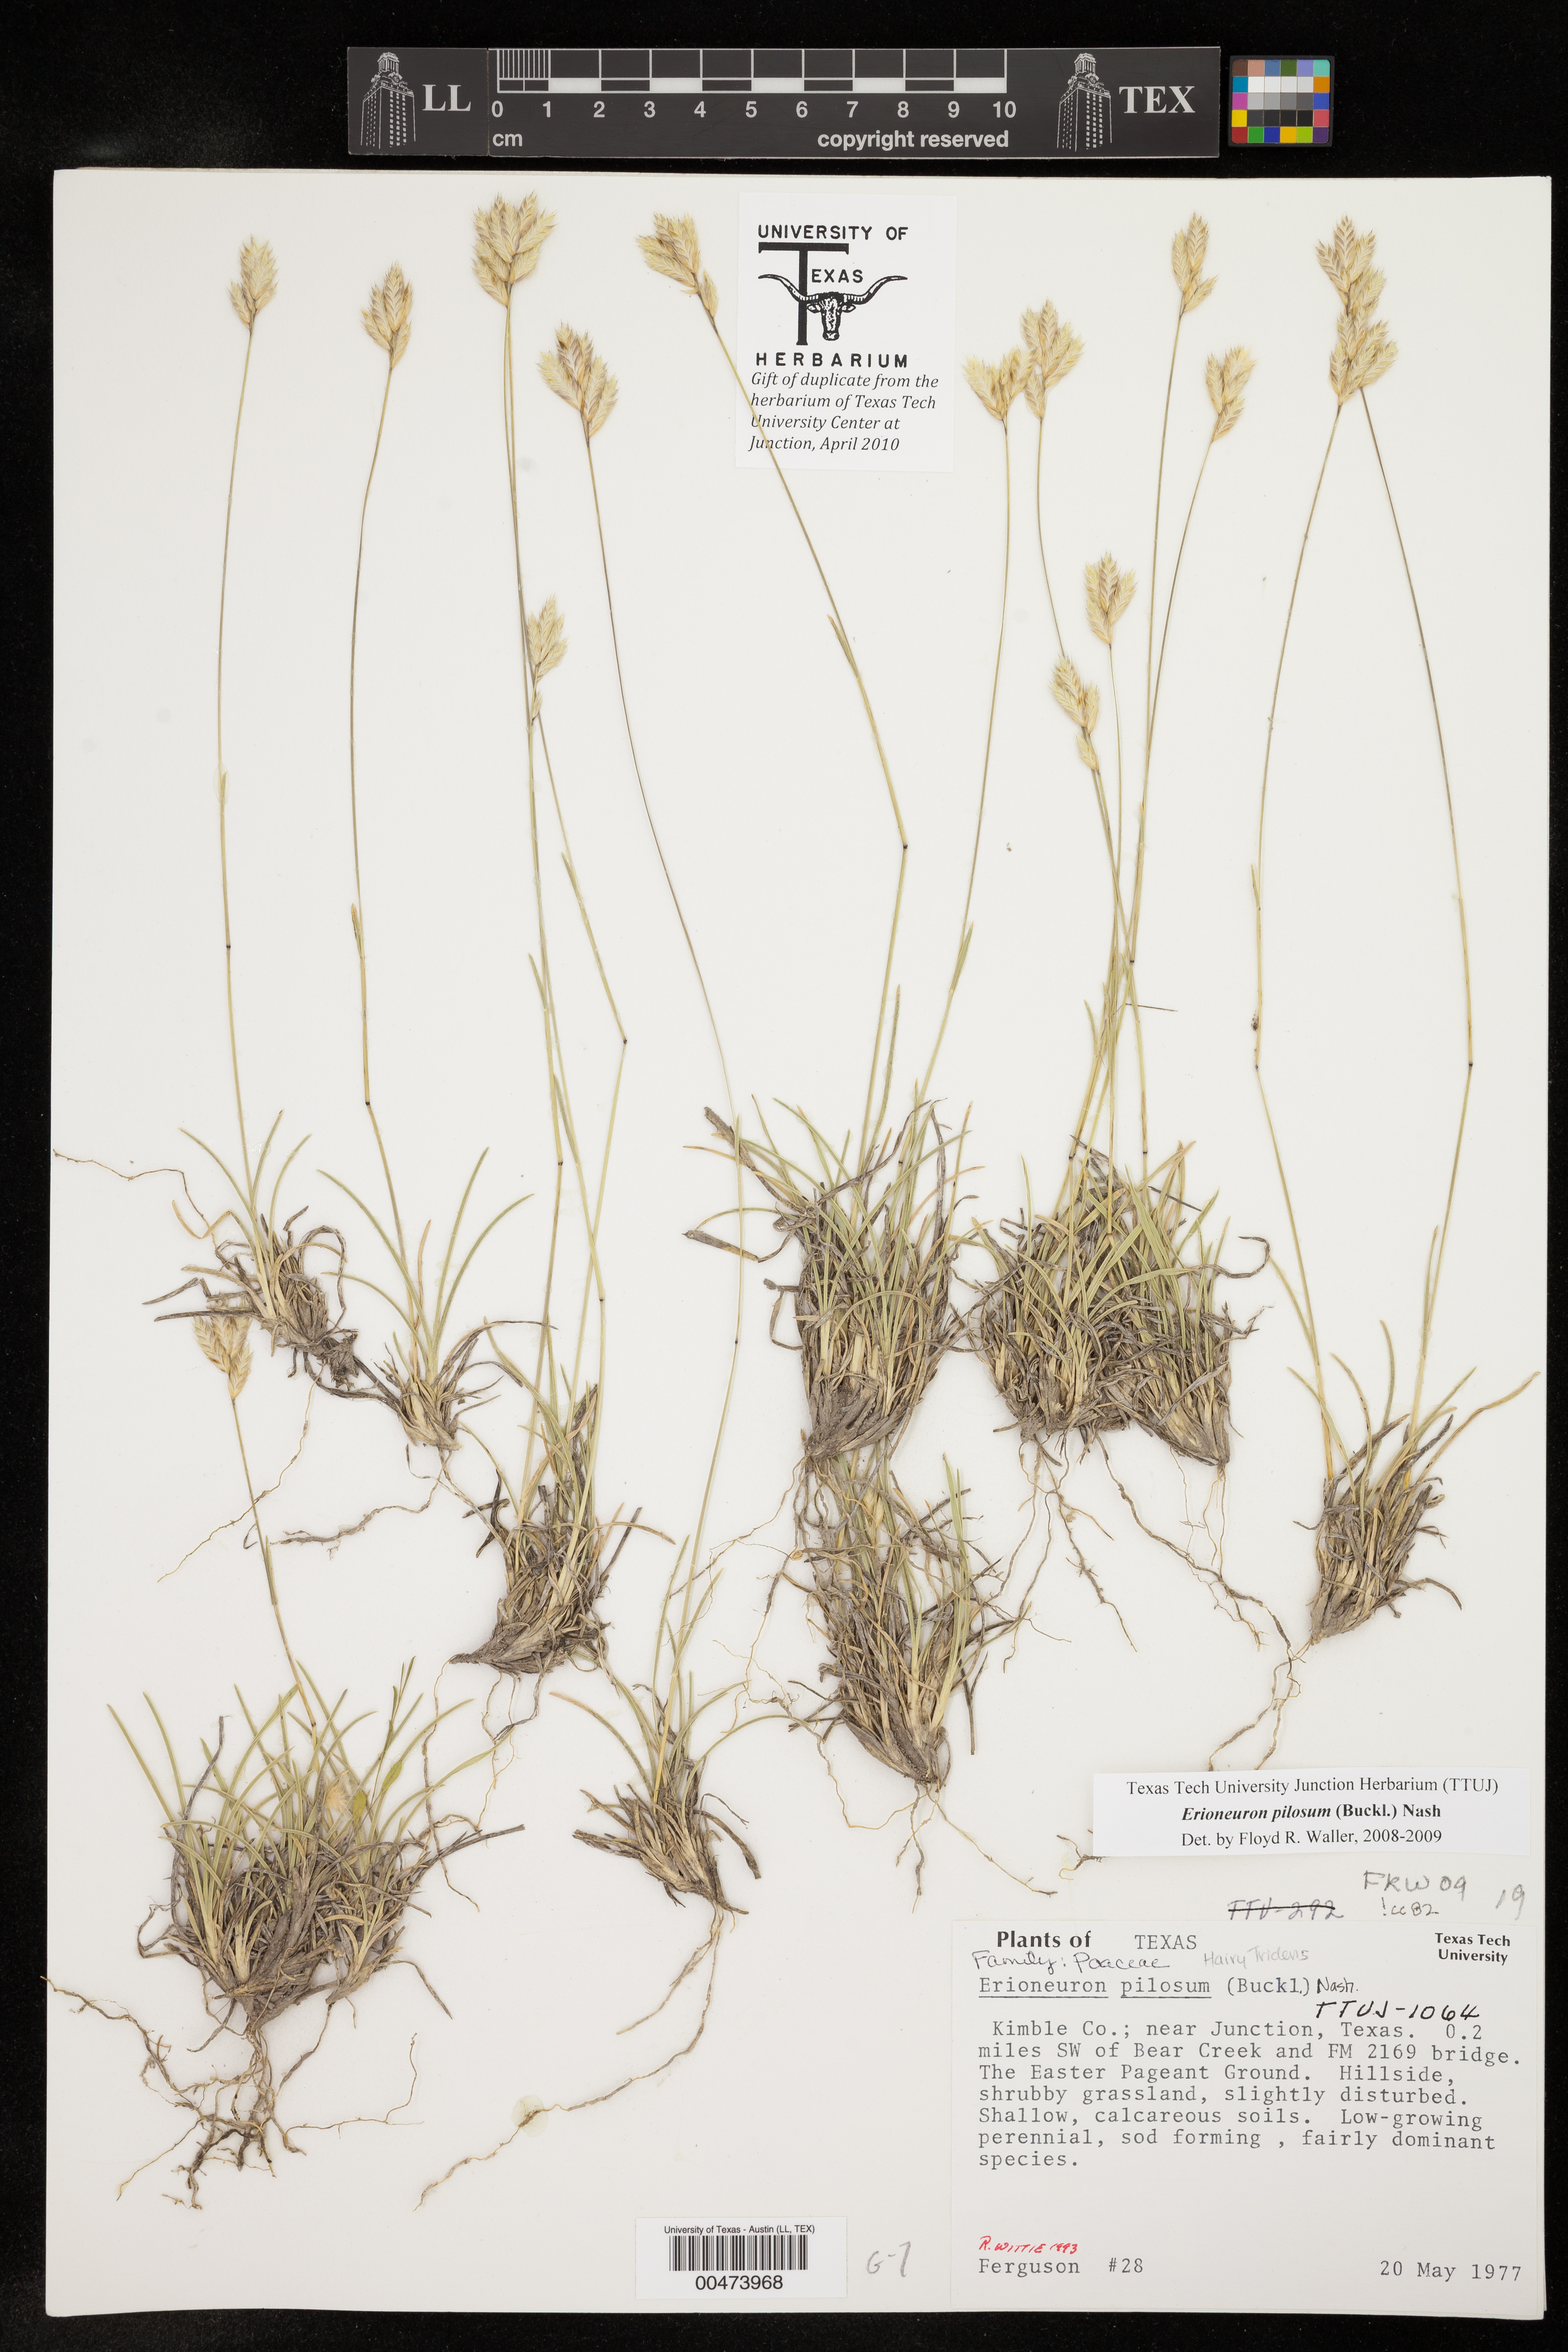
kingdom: Plantae
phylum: Tracheophyta
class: Liliopsida
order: Poales
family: Poaceae
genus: Erioneuron
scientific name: Erioneuron pilosum
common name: Hairy woolly grass
